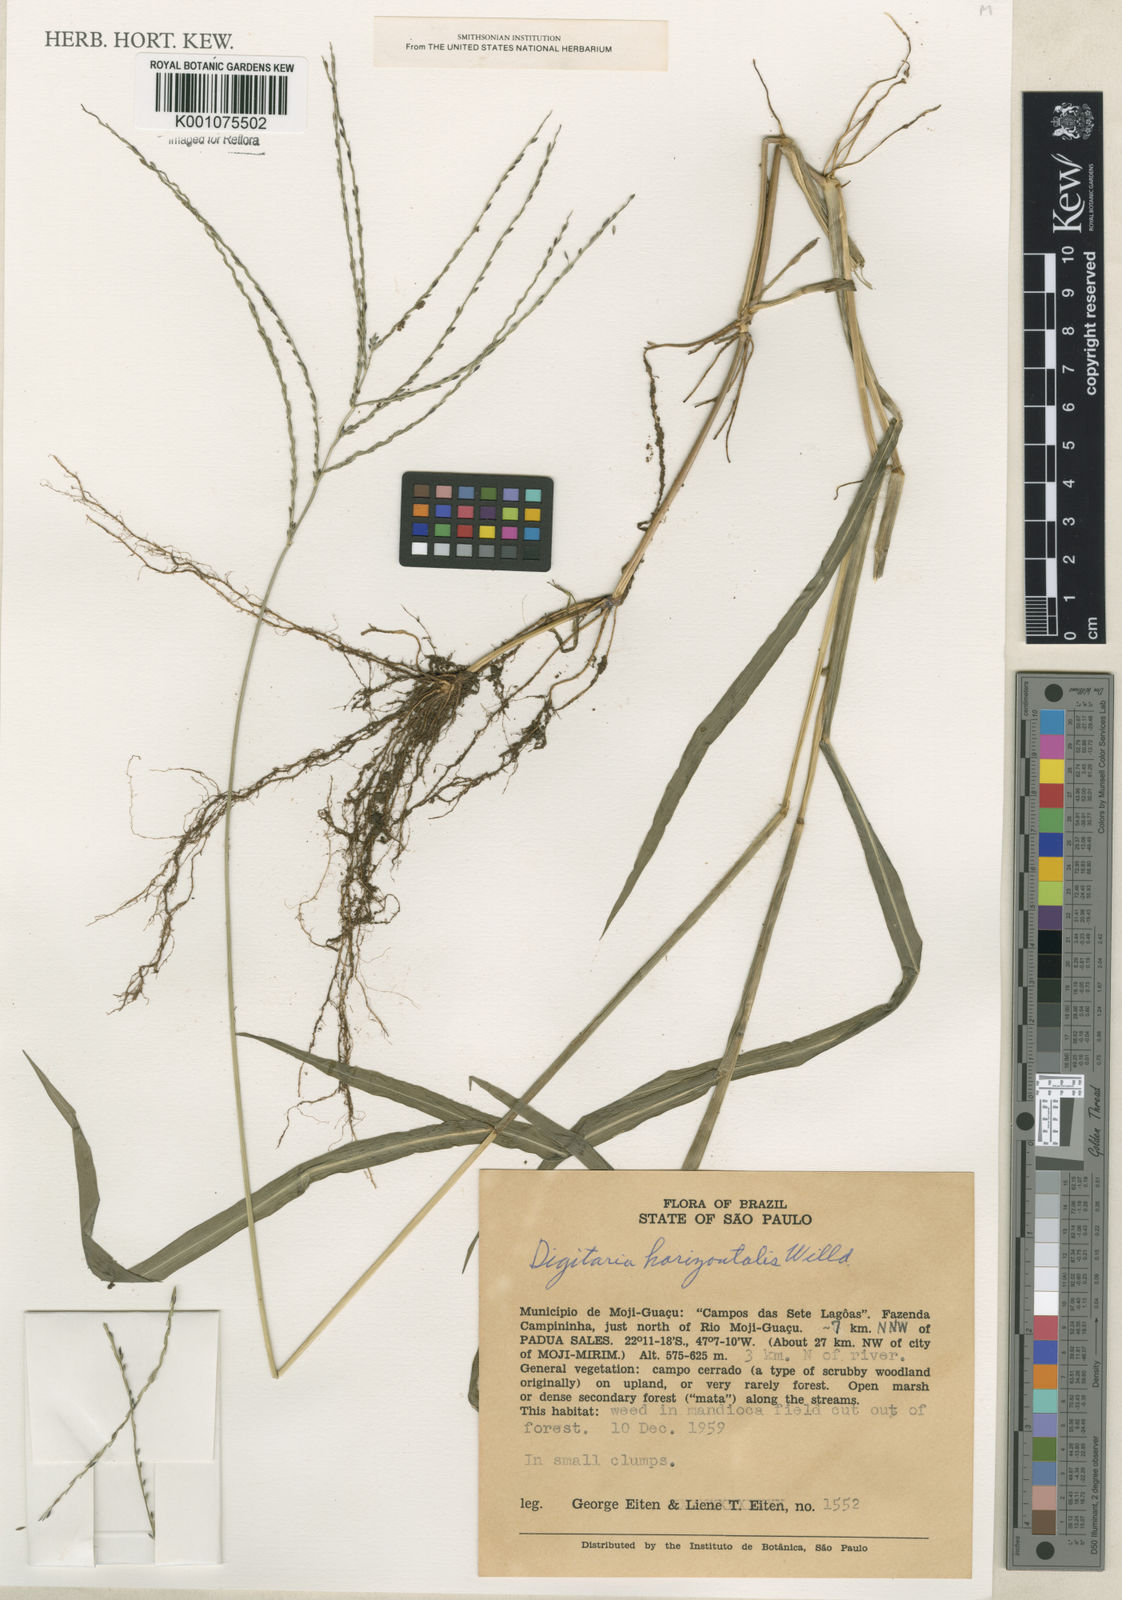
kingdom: Plantae
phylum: Tracheophyta
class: Liliopsida
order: Poales
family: Poaceae
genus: Digitaria
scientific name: Digitaria horizontalis
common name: Jamaican crabgrass
